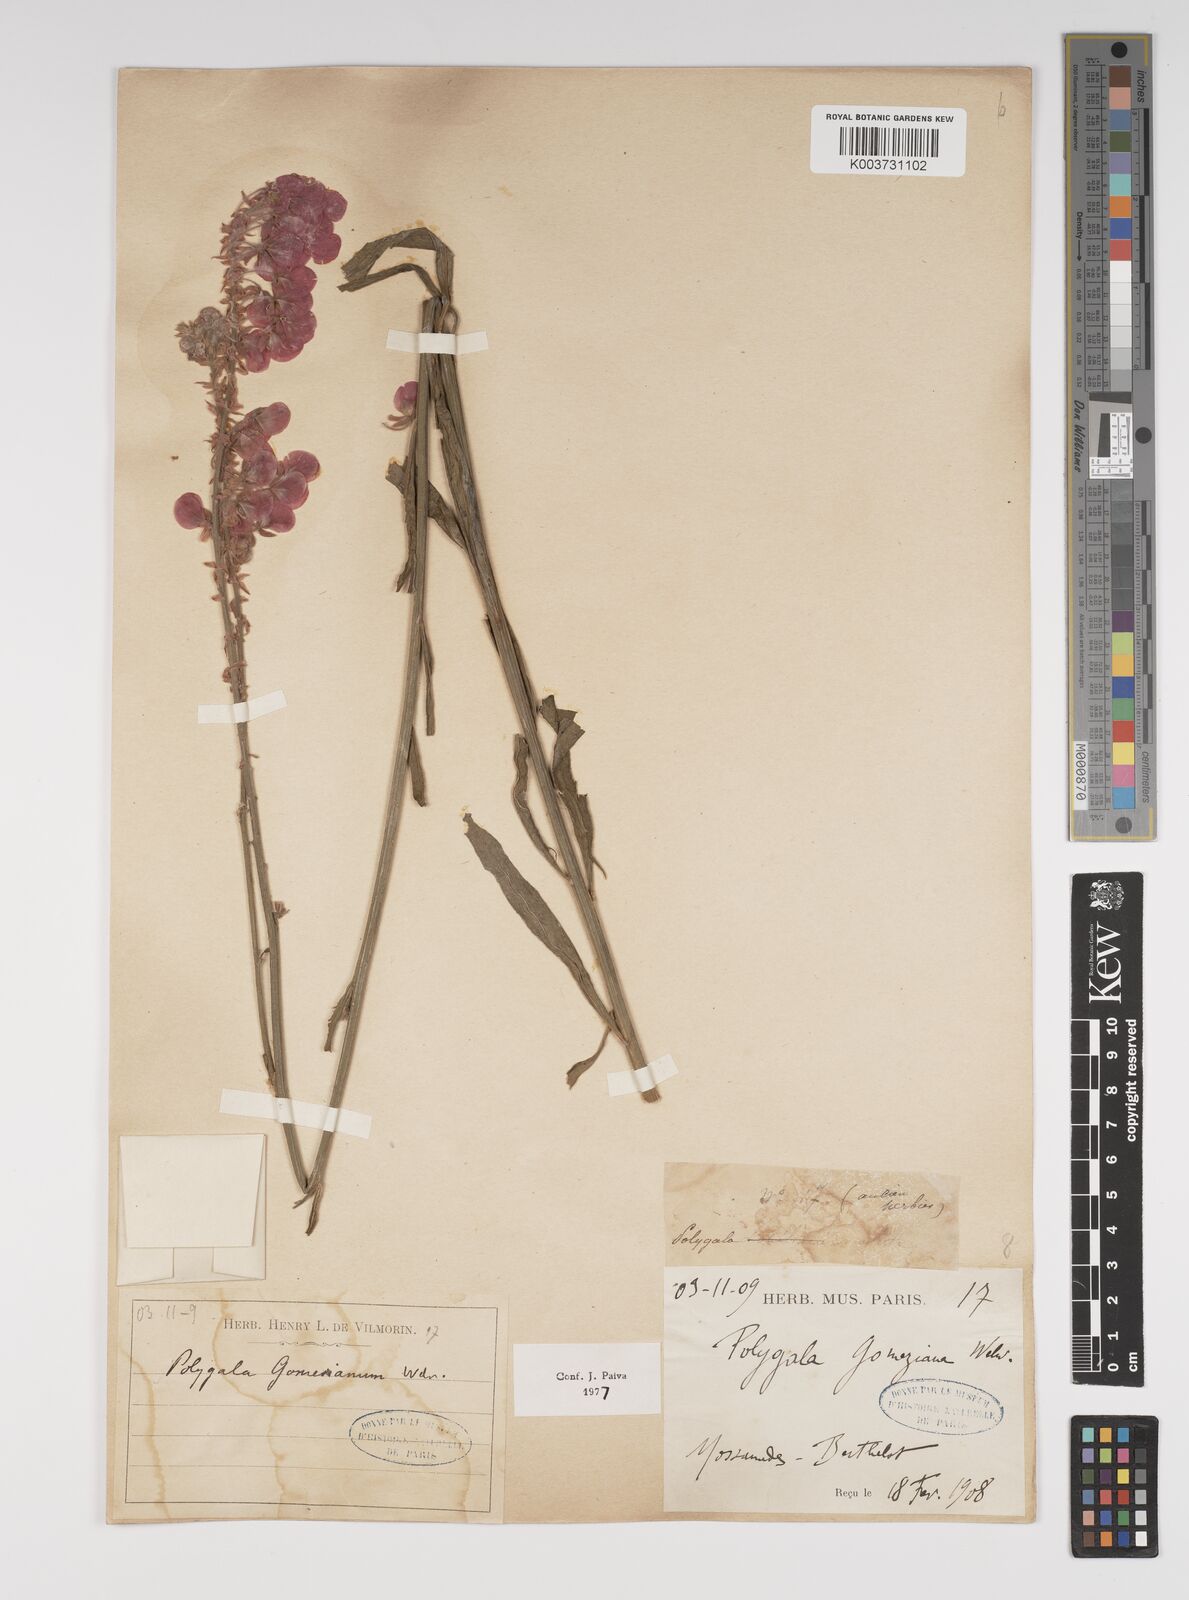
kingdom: Plantae
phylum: Tracheophyta
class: Magnoliopsida
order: Fabales
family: Polygalaceae
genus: Polygala
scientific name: Polygala gomesiana
